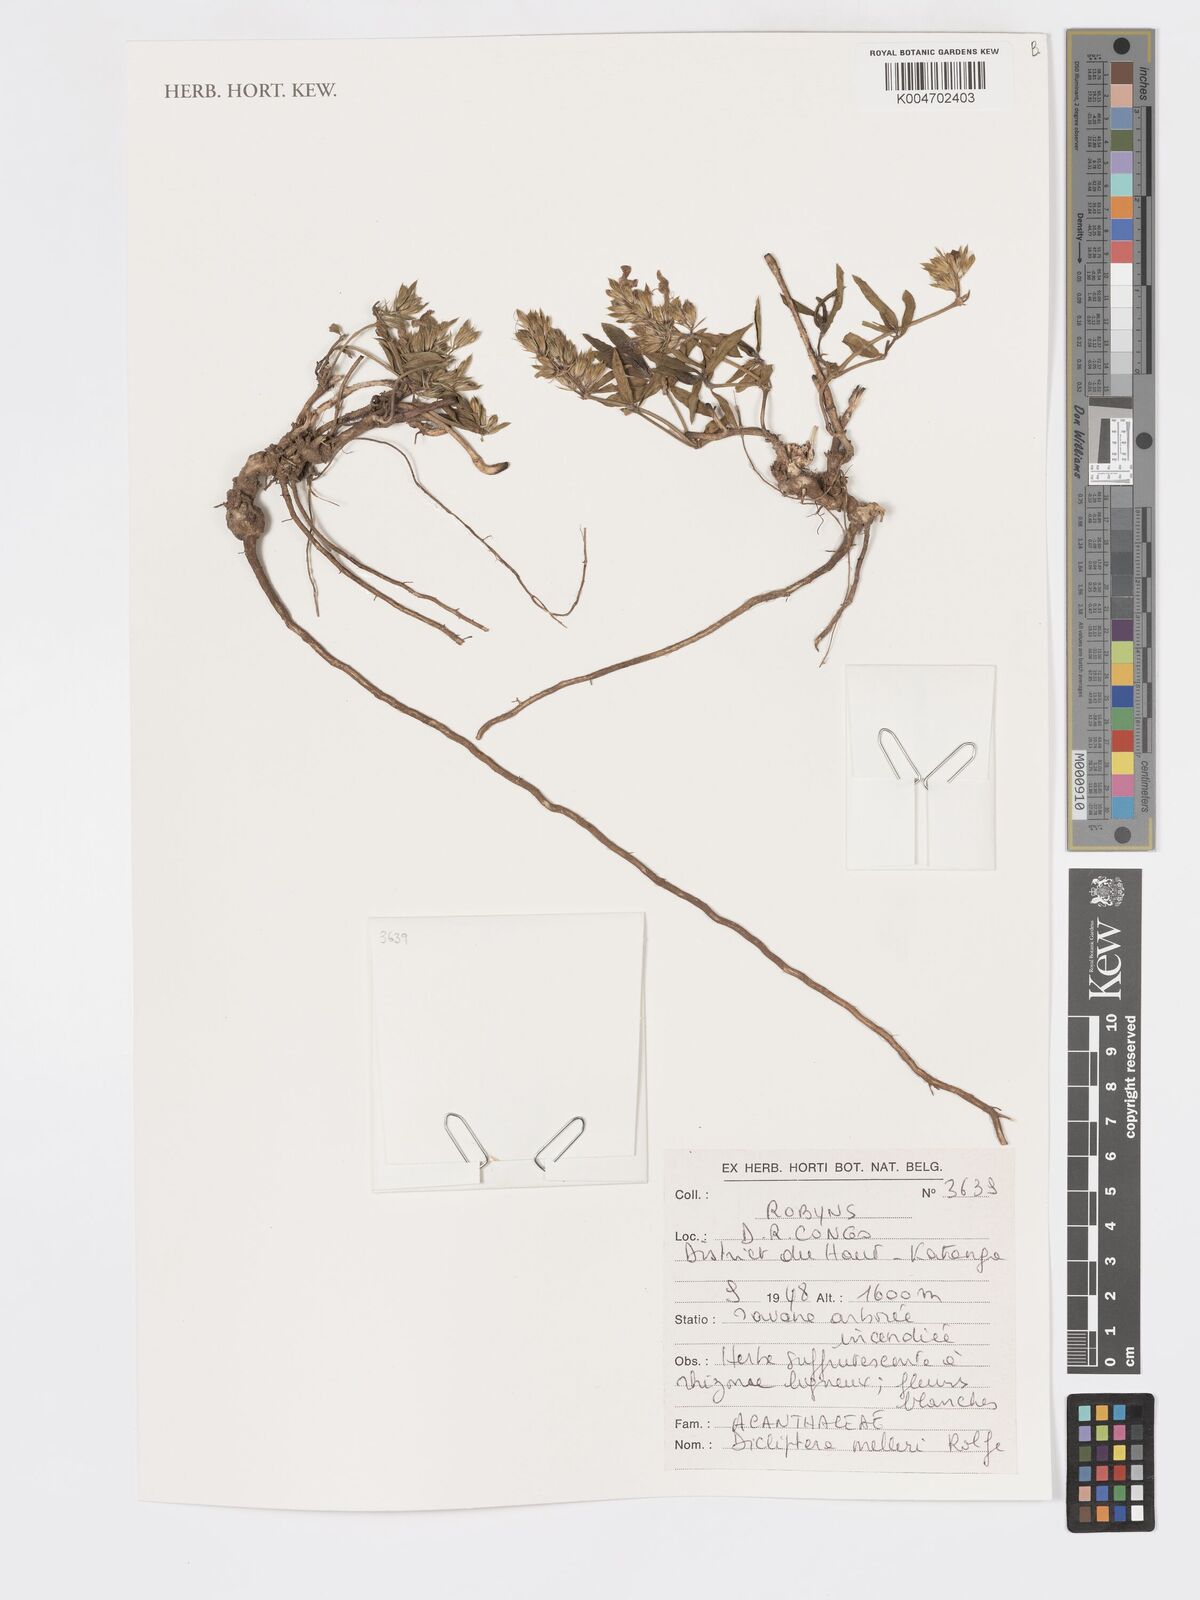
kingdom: Plantae
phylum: Tracheophyta
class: Magnoliopsida
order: Lamiales
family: Acanthaceae
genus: Dicliptera
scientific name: Dicliptera melleri
